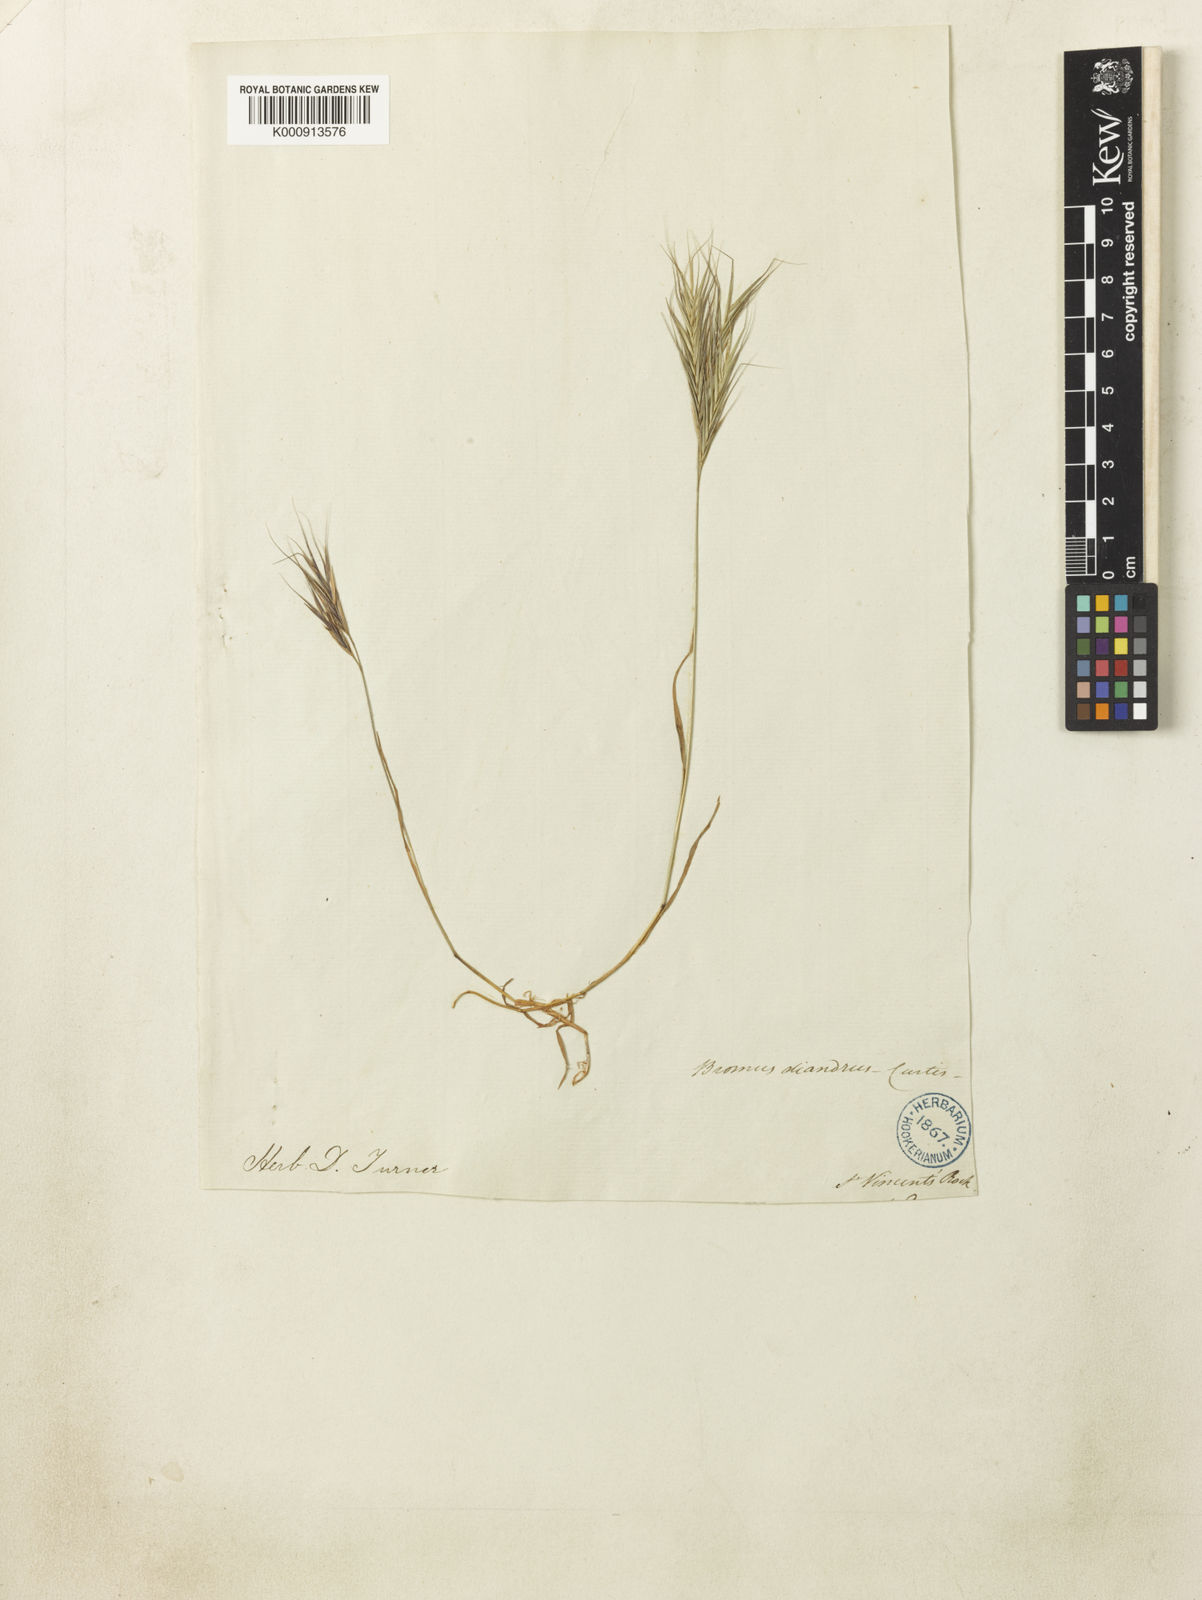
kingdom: Plantae
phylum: Tracheophyta
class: Liliopsida
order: Poales
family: Poaceae
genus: Bromus
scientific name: Bromus madritensis
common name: Compact brome
